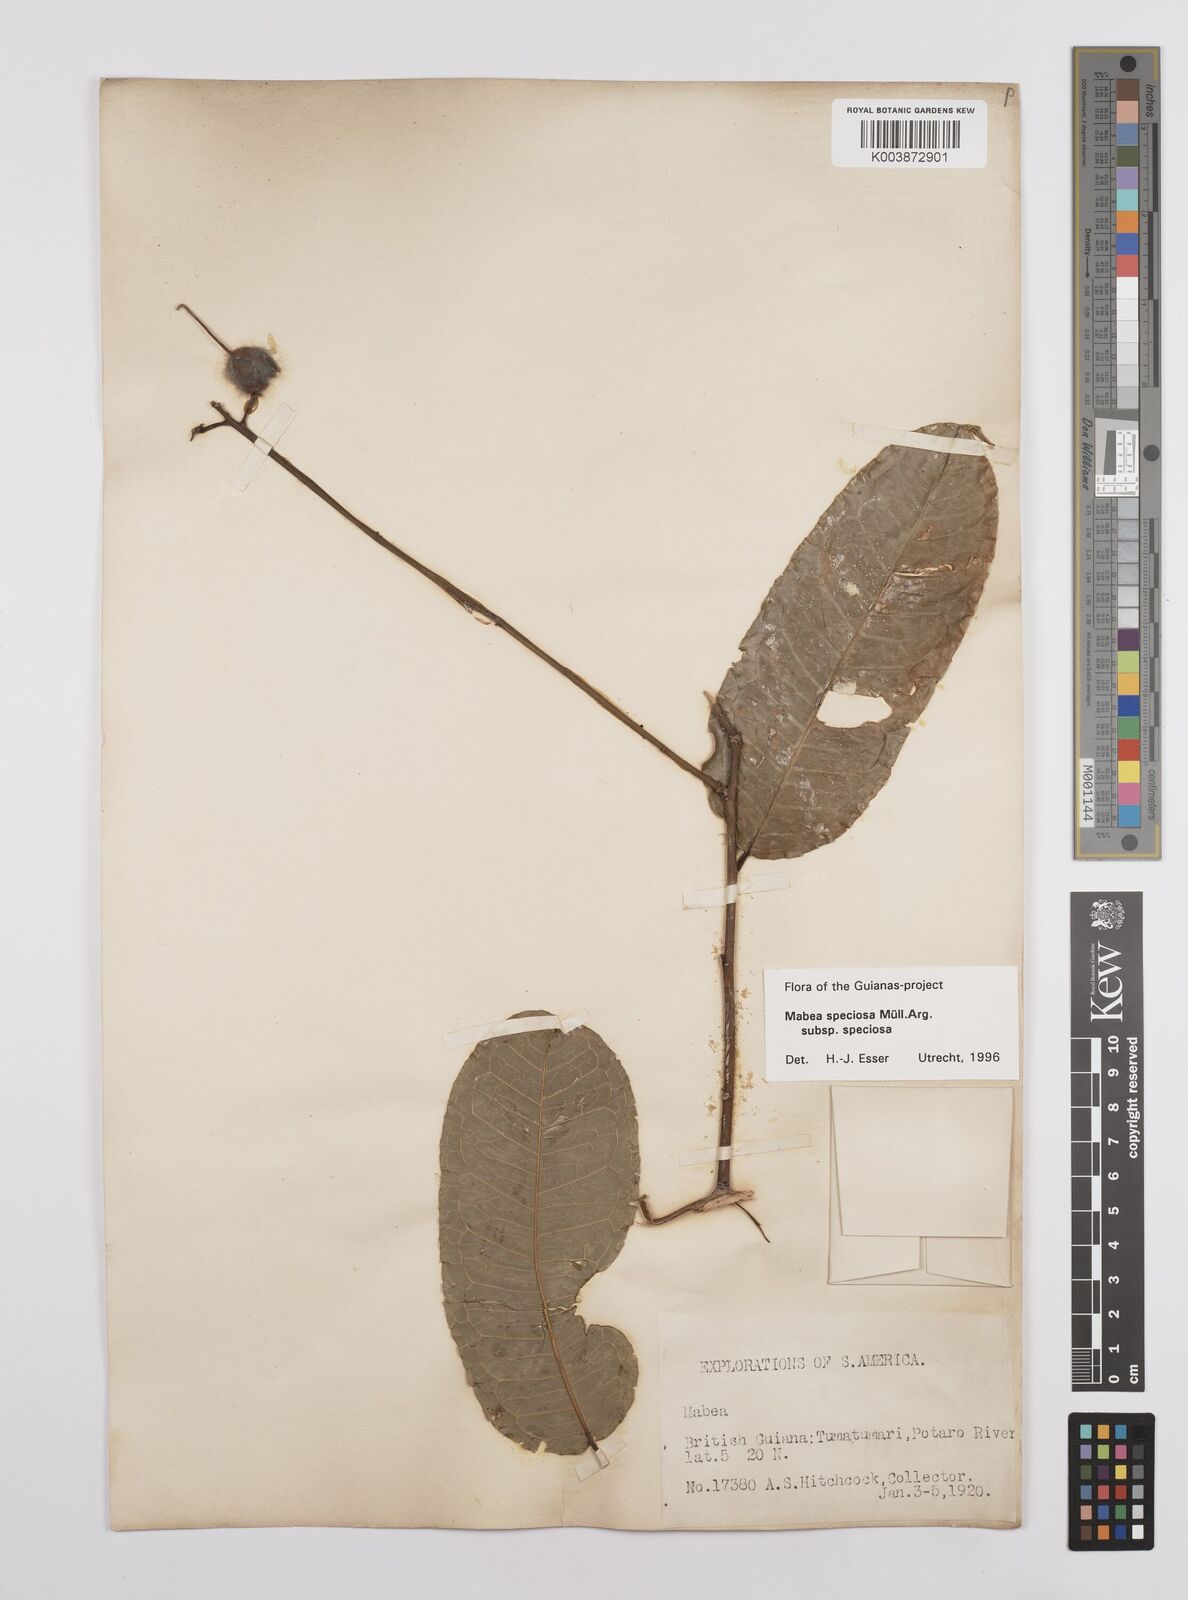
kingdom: Plantae
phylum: Tracheophyta
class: Magnoliopsida
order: Malpighiales
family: Euphorbiaceae
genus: Mabea
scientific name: Mabea speciosa
